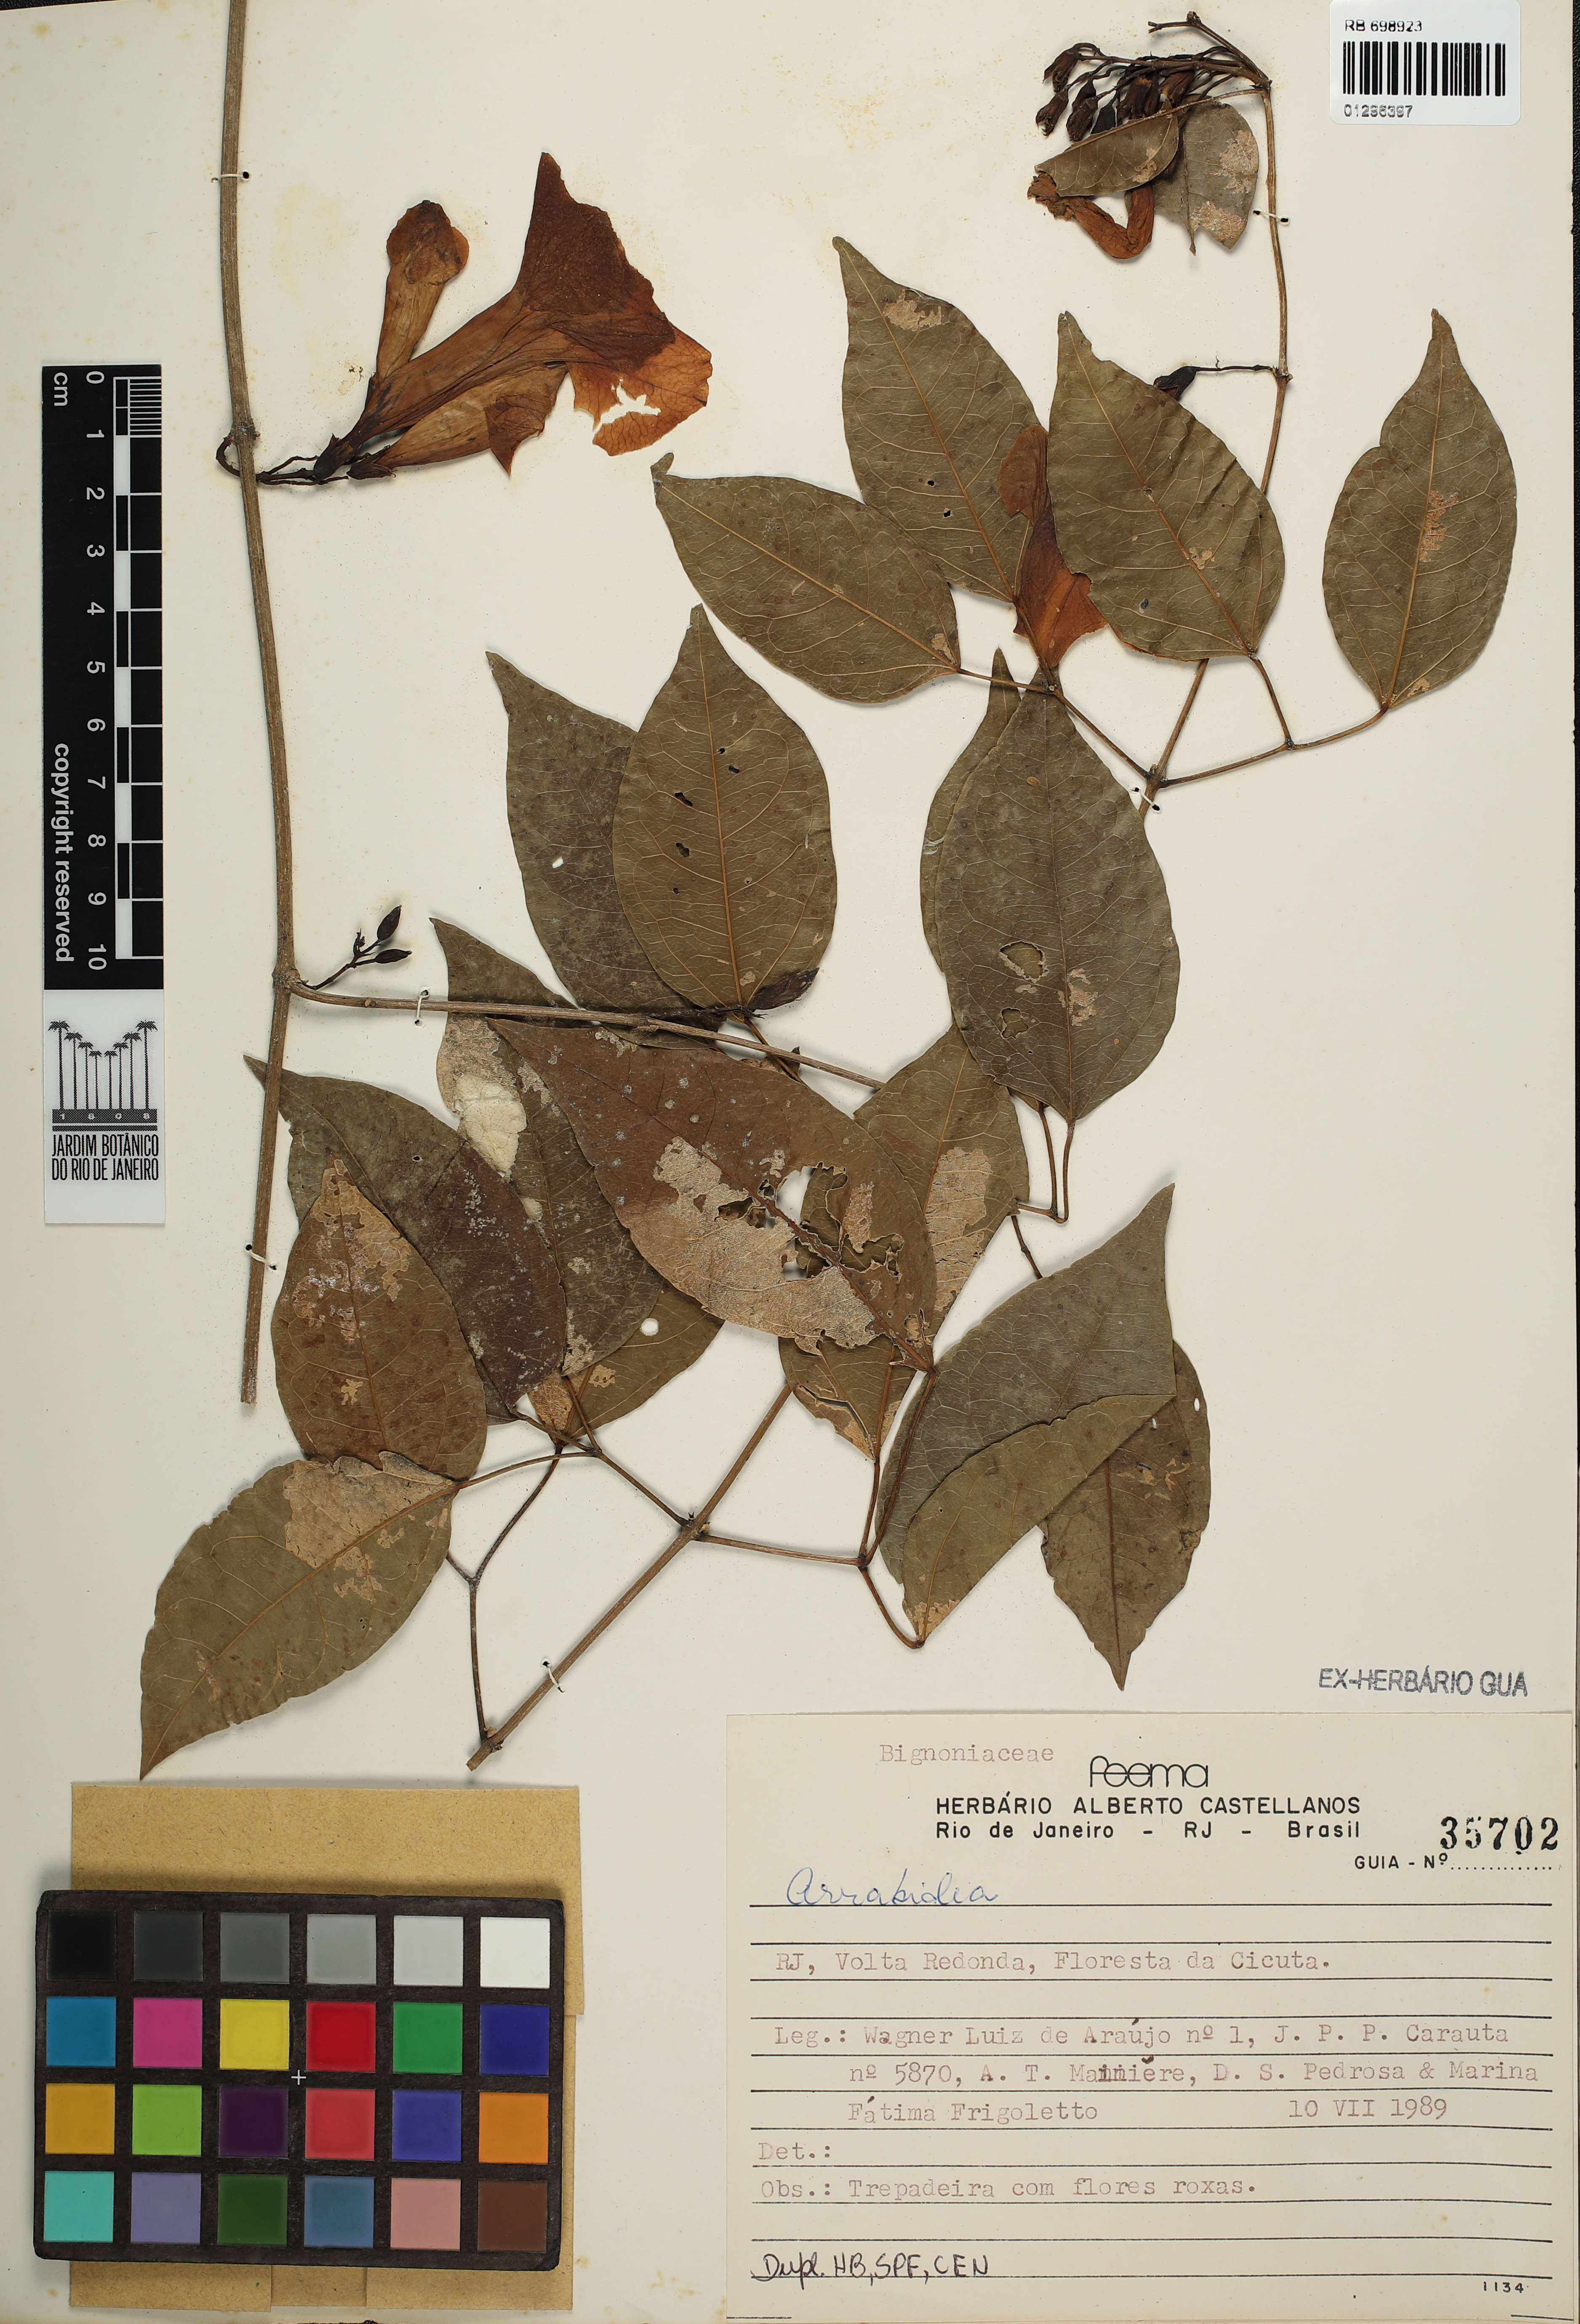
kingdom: Plantae
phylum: Tracheophyta
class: Magnoliopsida
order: Lamiales
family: Bignoniaceae
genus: Mansoa
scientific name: Mansoa difficilis
